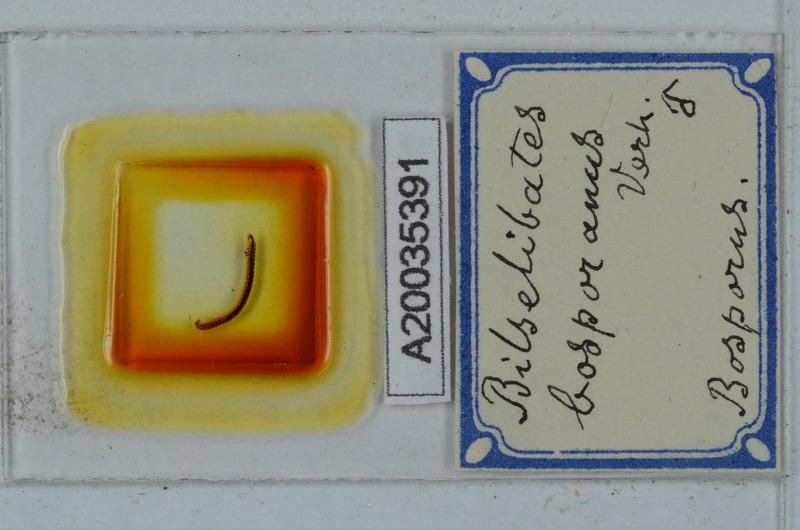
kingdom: Animalia
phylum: Arthropoda
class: Diplopoda
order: Julida
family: Blaniulidae
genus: Cibiniulus
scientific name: Cibiniulus phlepsii
